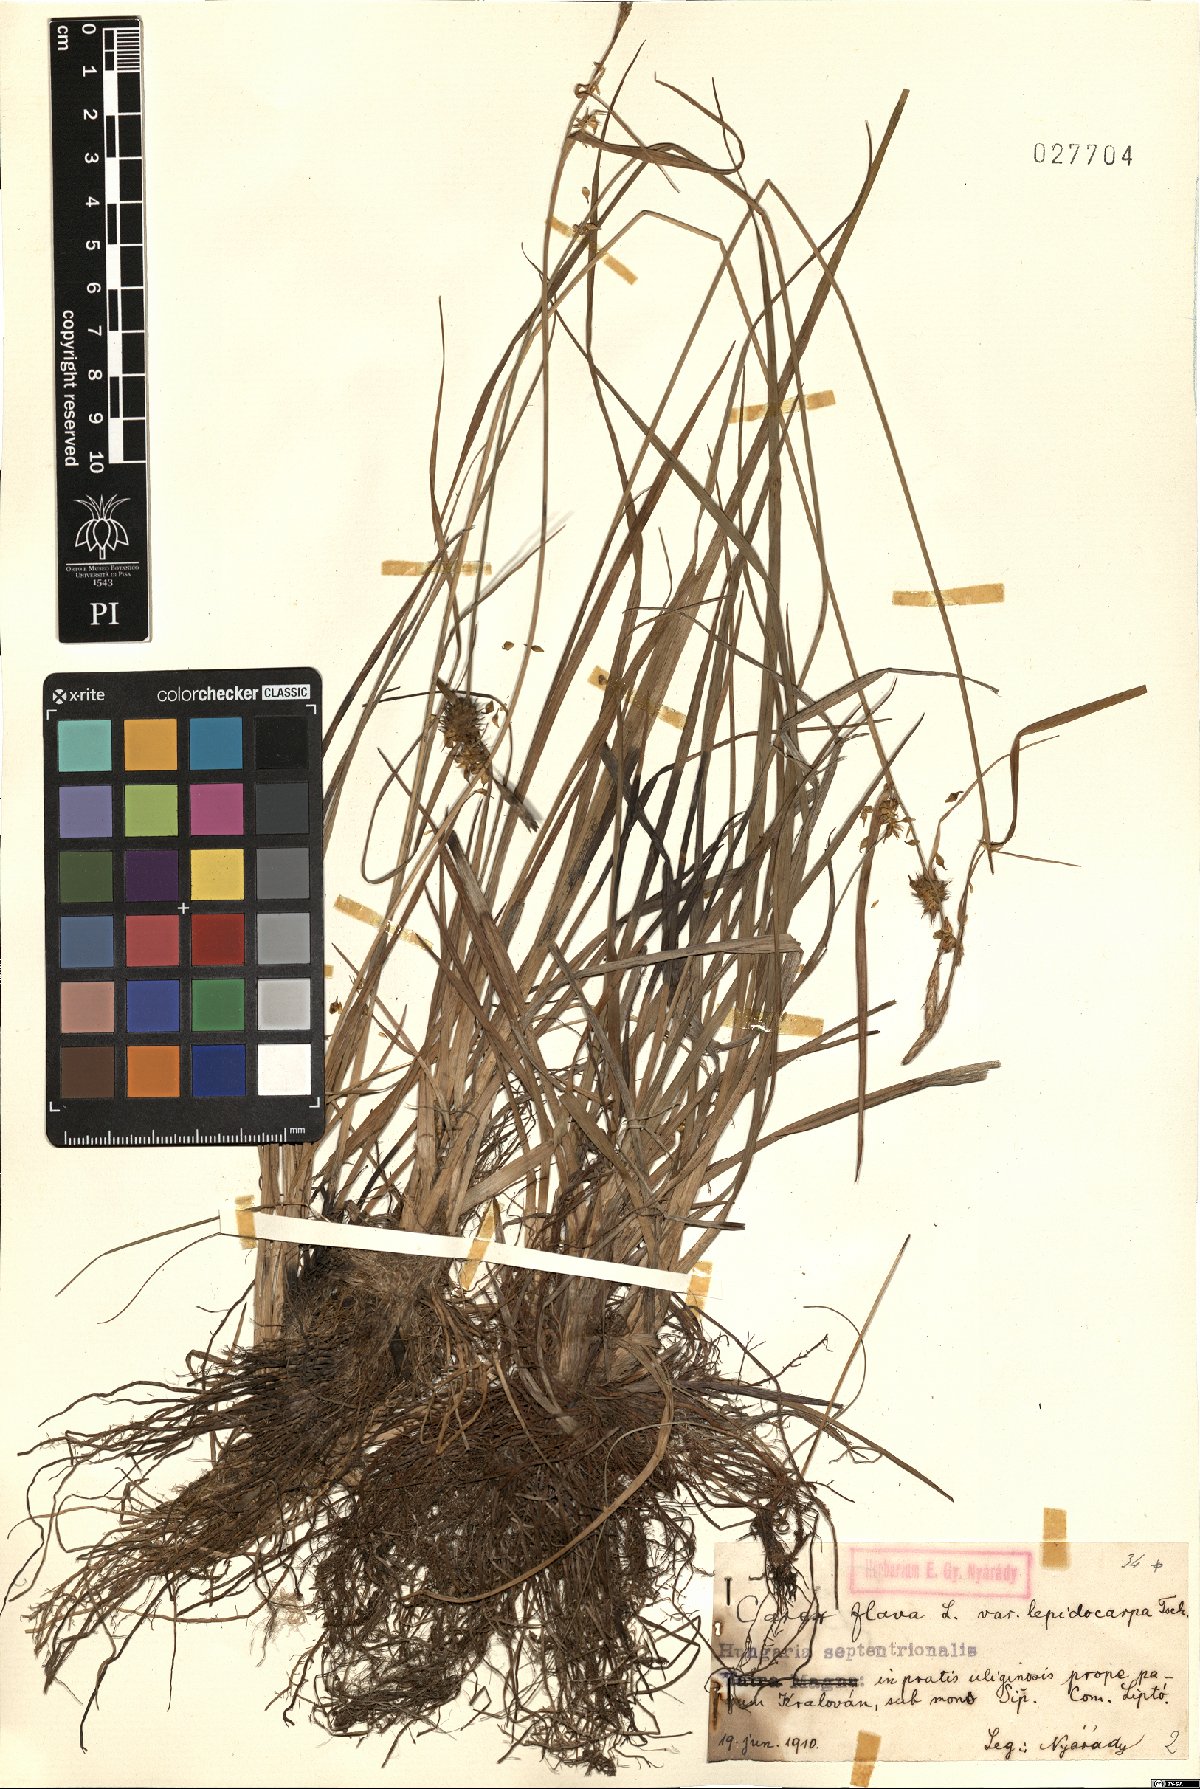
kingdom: Plantae
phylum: Tracheophyta
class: Liliopsida
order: Poales
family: Cyperaceae
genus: Carex
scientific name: Carex lepidocarpa
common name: Long-stalked yellow-sedge
